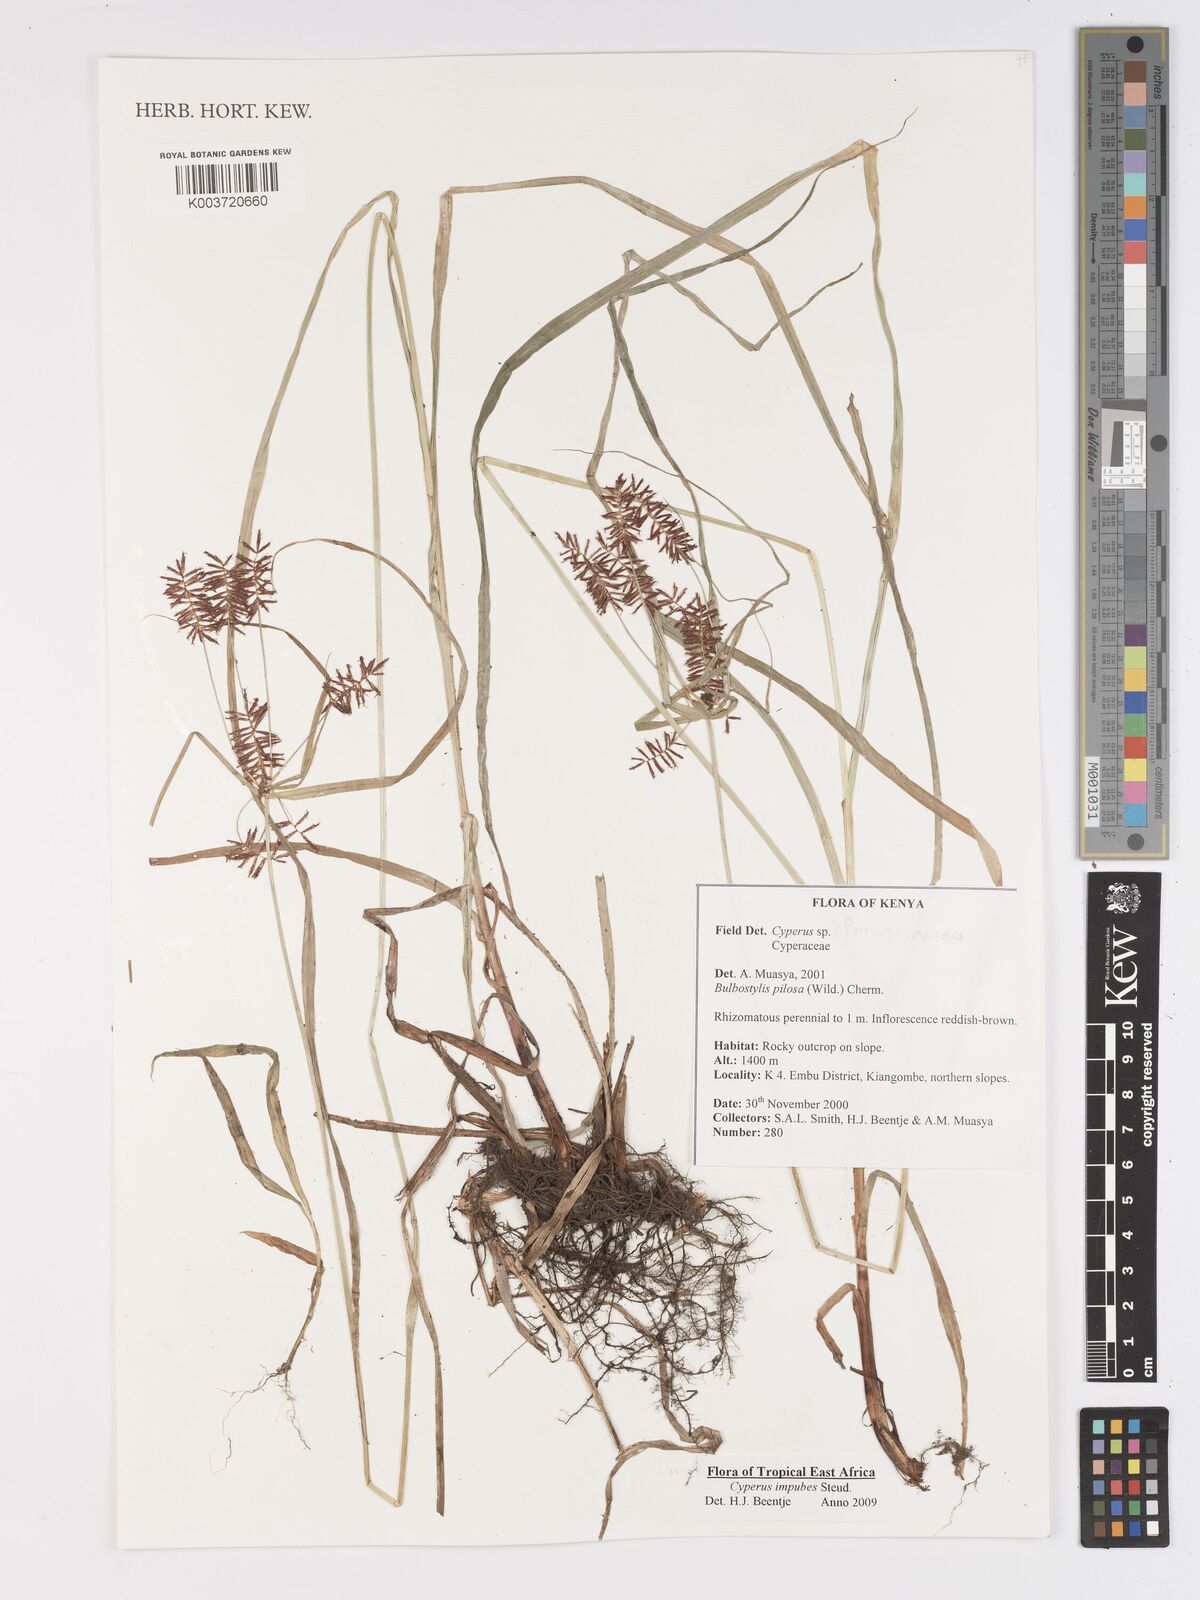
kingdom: Plantae
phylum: Tracheophyta
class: Liliopsida
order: Poales
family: Cyperaceae
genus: Cyperus
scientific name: Cyperus impubes
